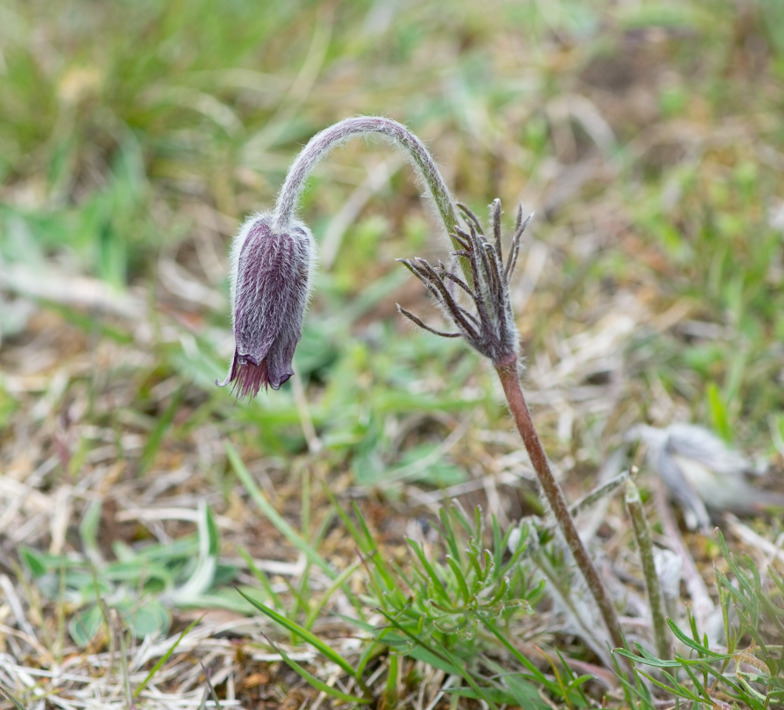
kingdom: Plantae
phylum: Tracheophyta
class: Magnoliopsida
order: Ranunculales
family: Ranunculaceae
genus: Pulsatilla
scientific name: Pulsatilla pratensis
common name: Nikkende kobjælde
